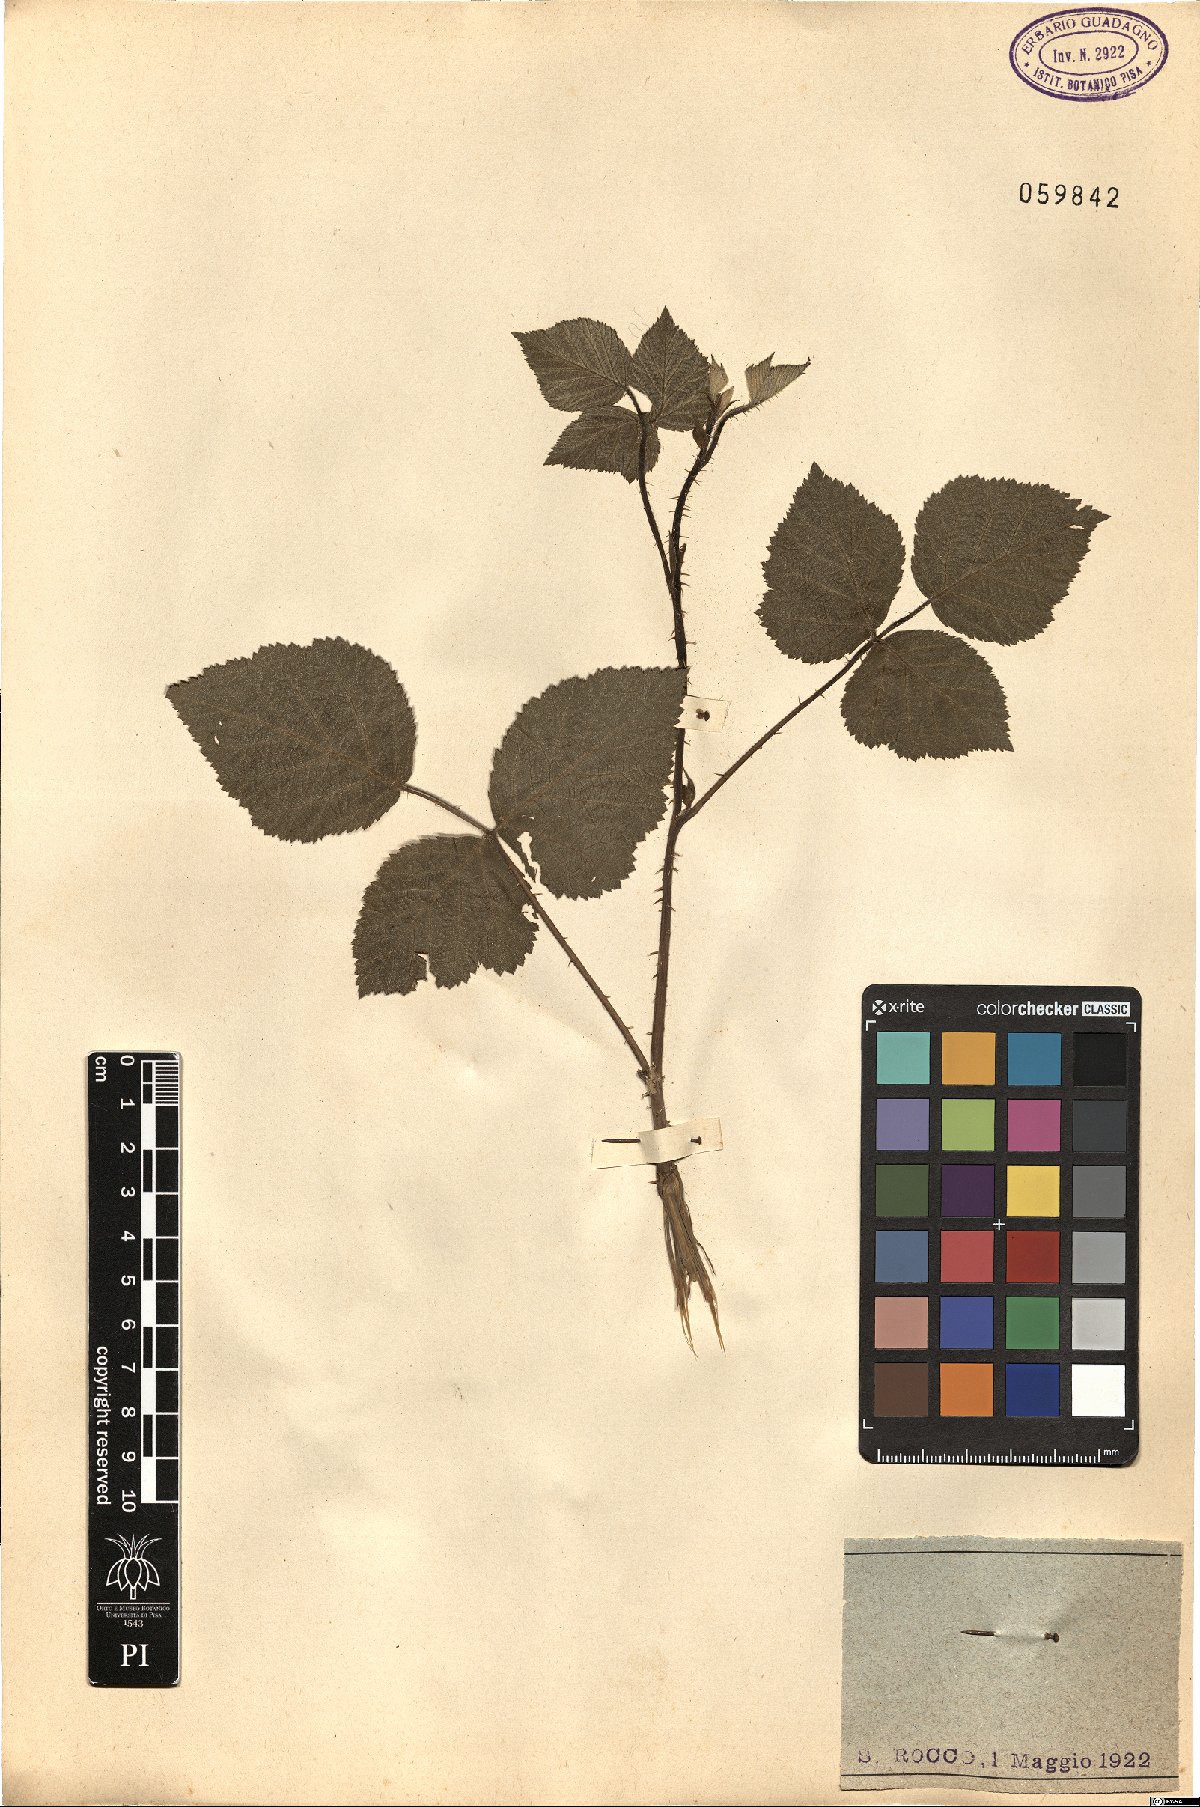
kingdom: Plantae
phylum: Tracheophyta
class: Magnoliopsida
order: Rosales
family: Rosaceae
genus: Rubus
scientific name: Rubus
